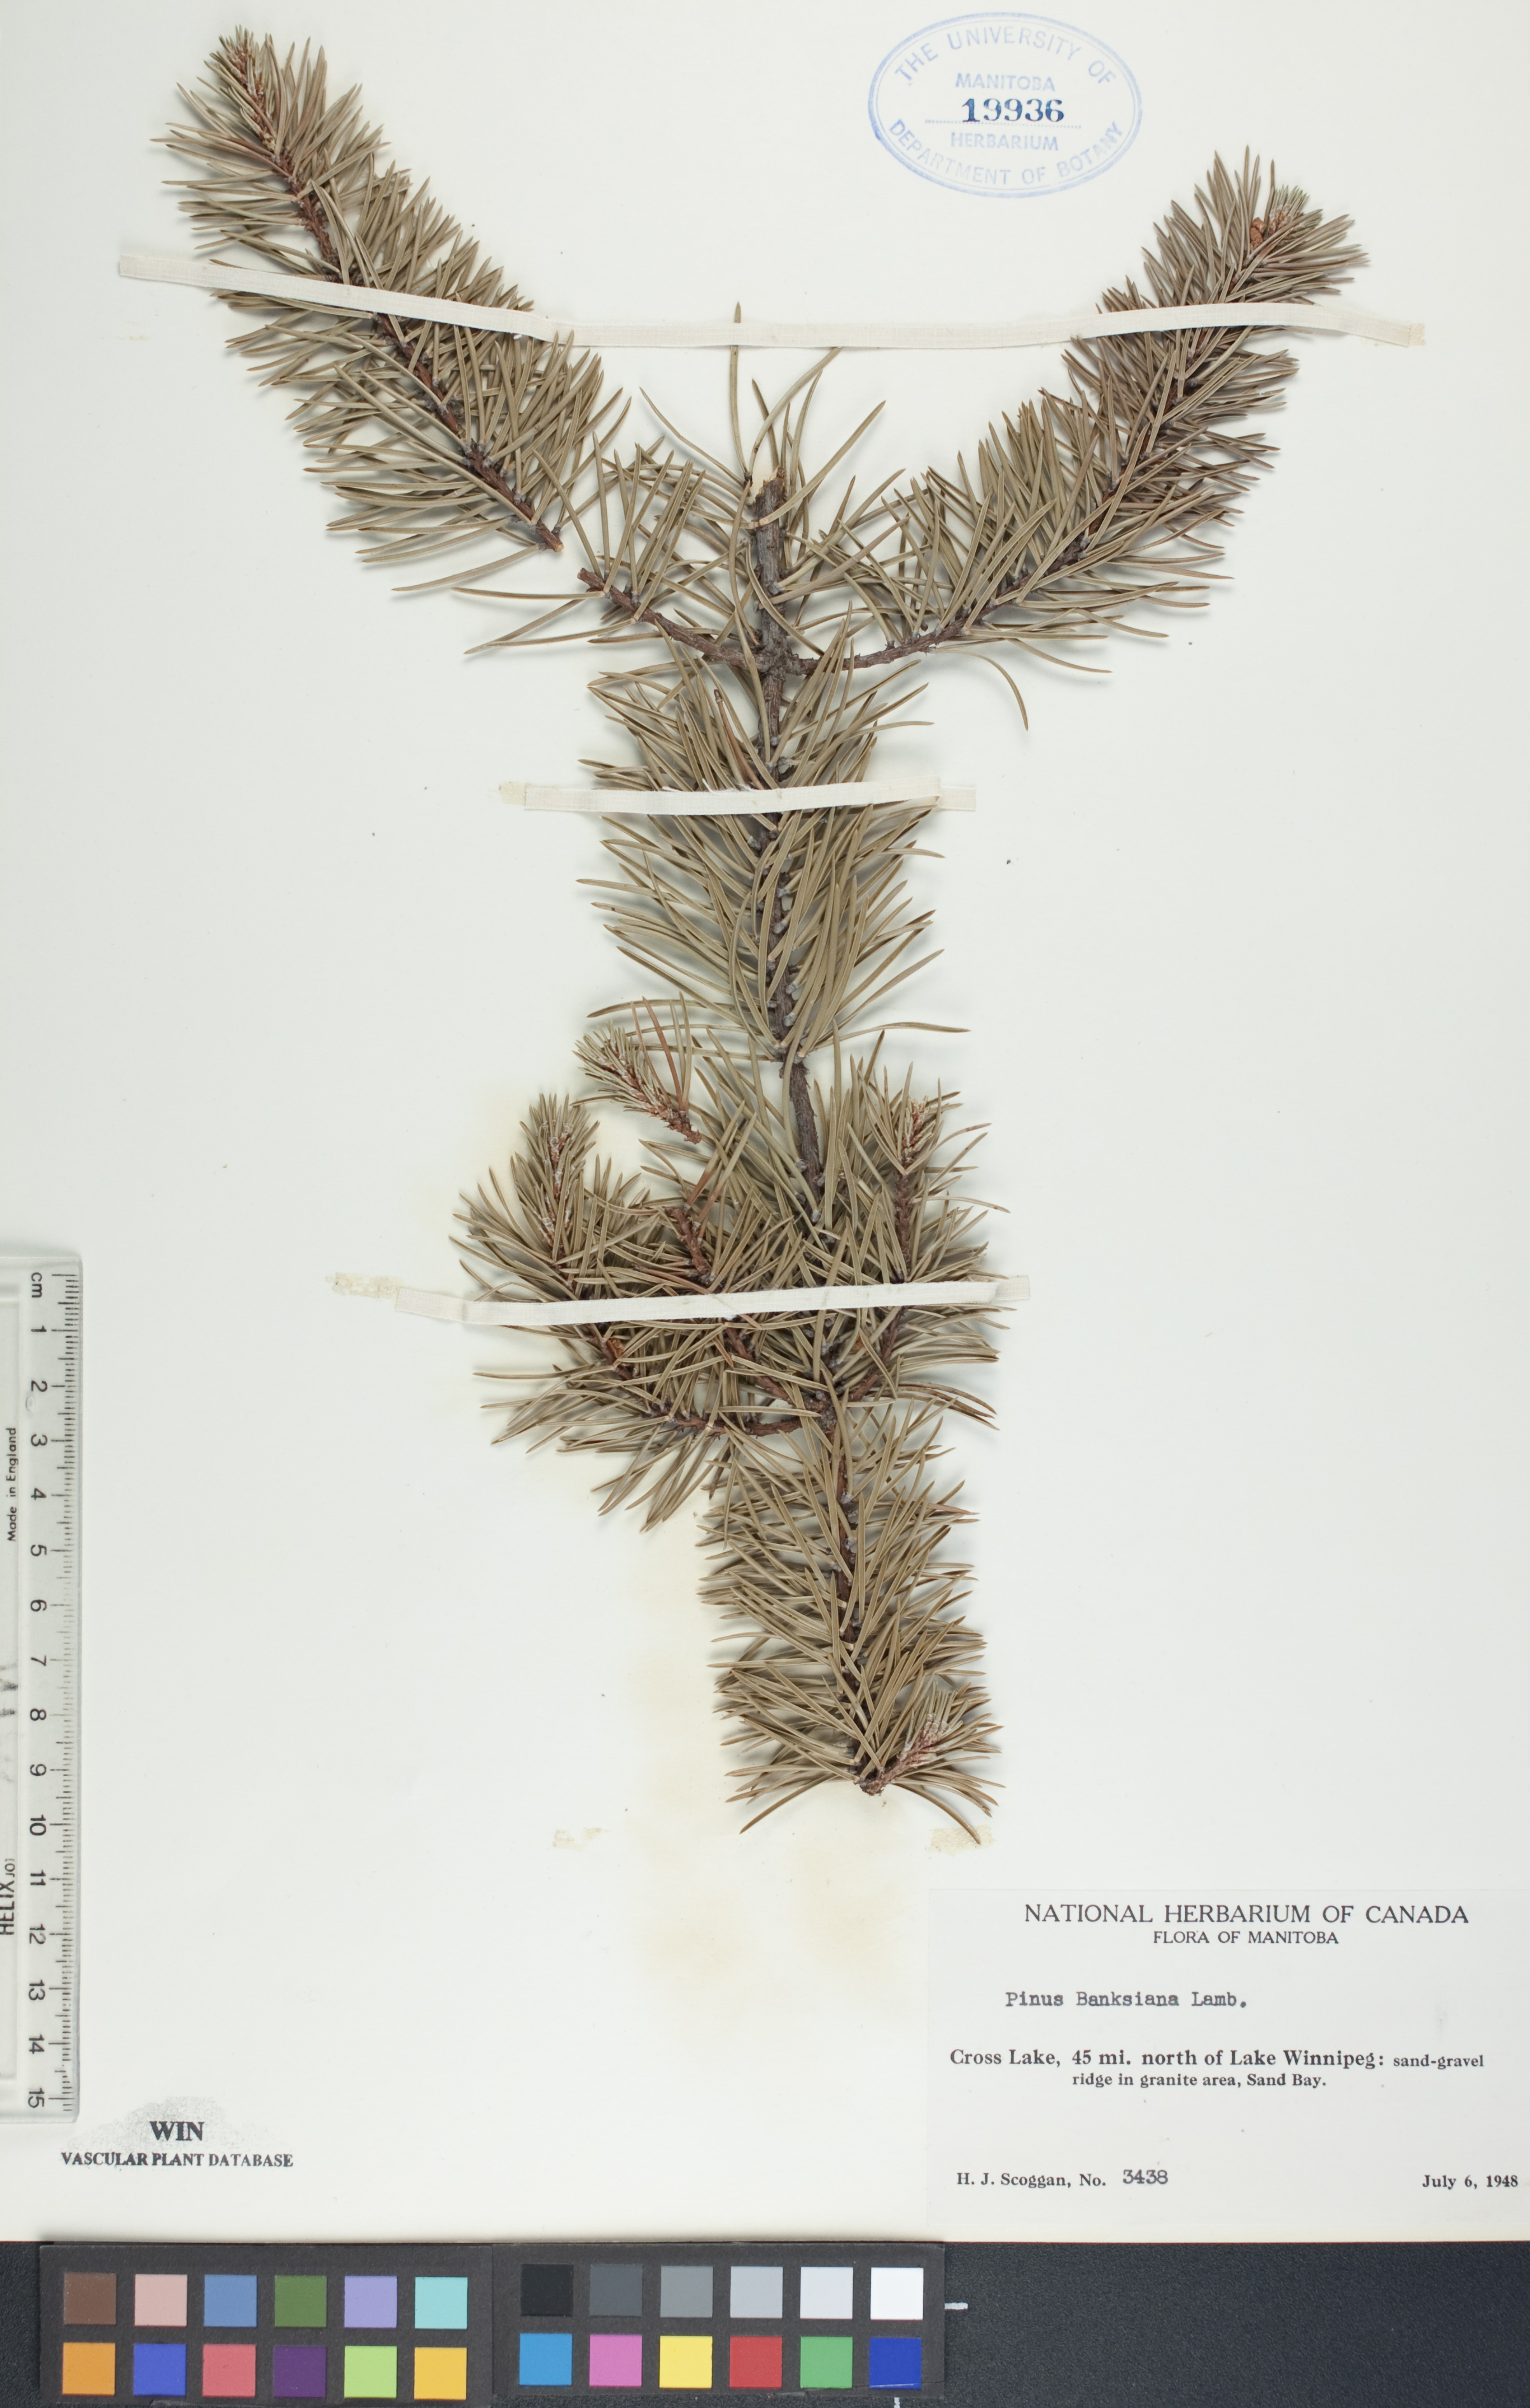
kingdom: Plantae
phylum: Tracheophyta
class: Pinopsida
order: Pinales
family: Pinaceae
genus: Pinus
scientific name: Pinus banksiana
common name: Jack pine
